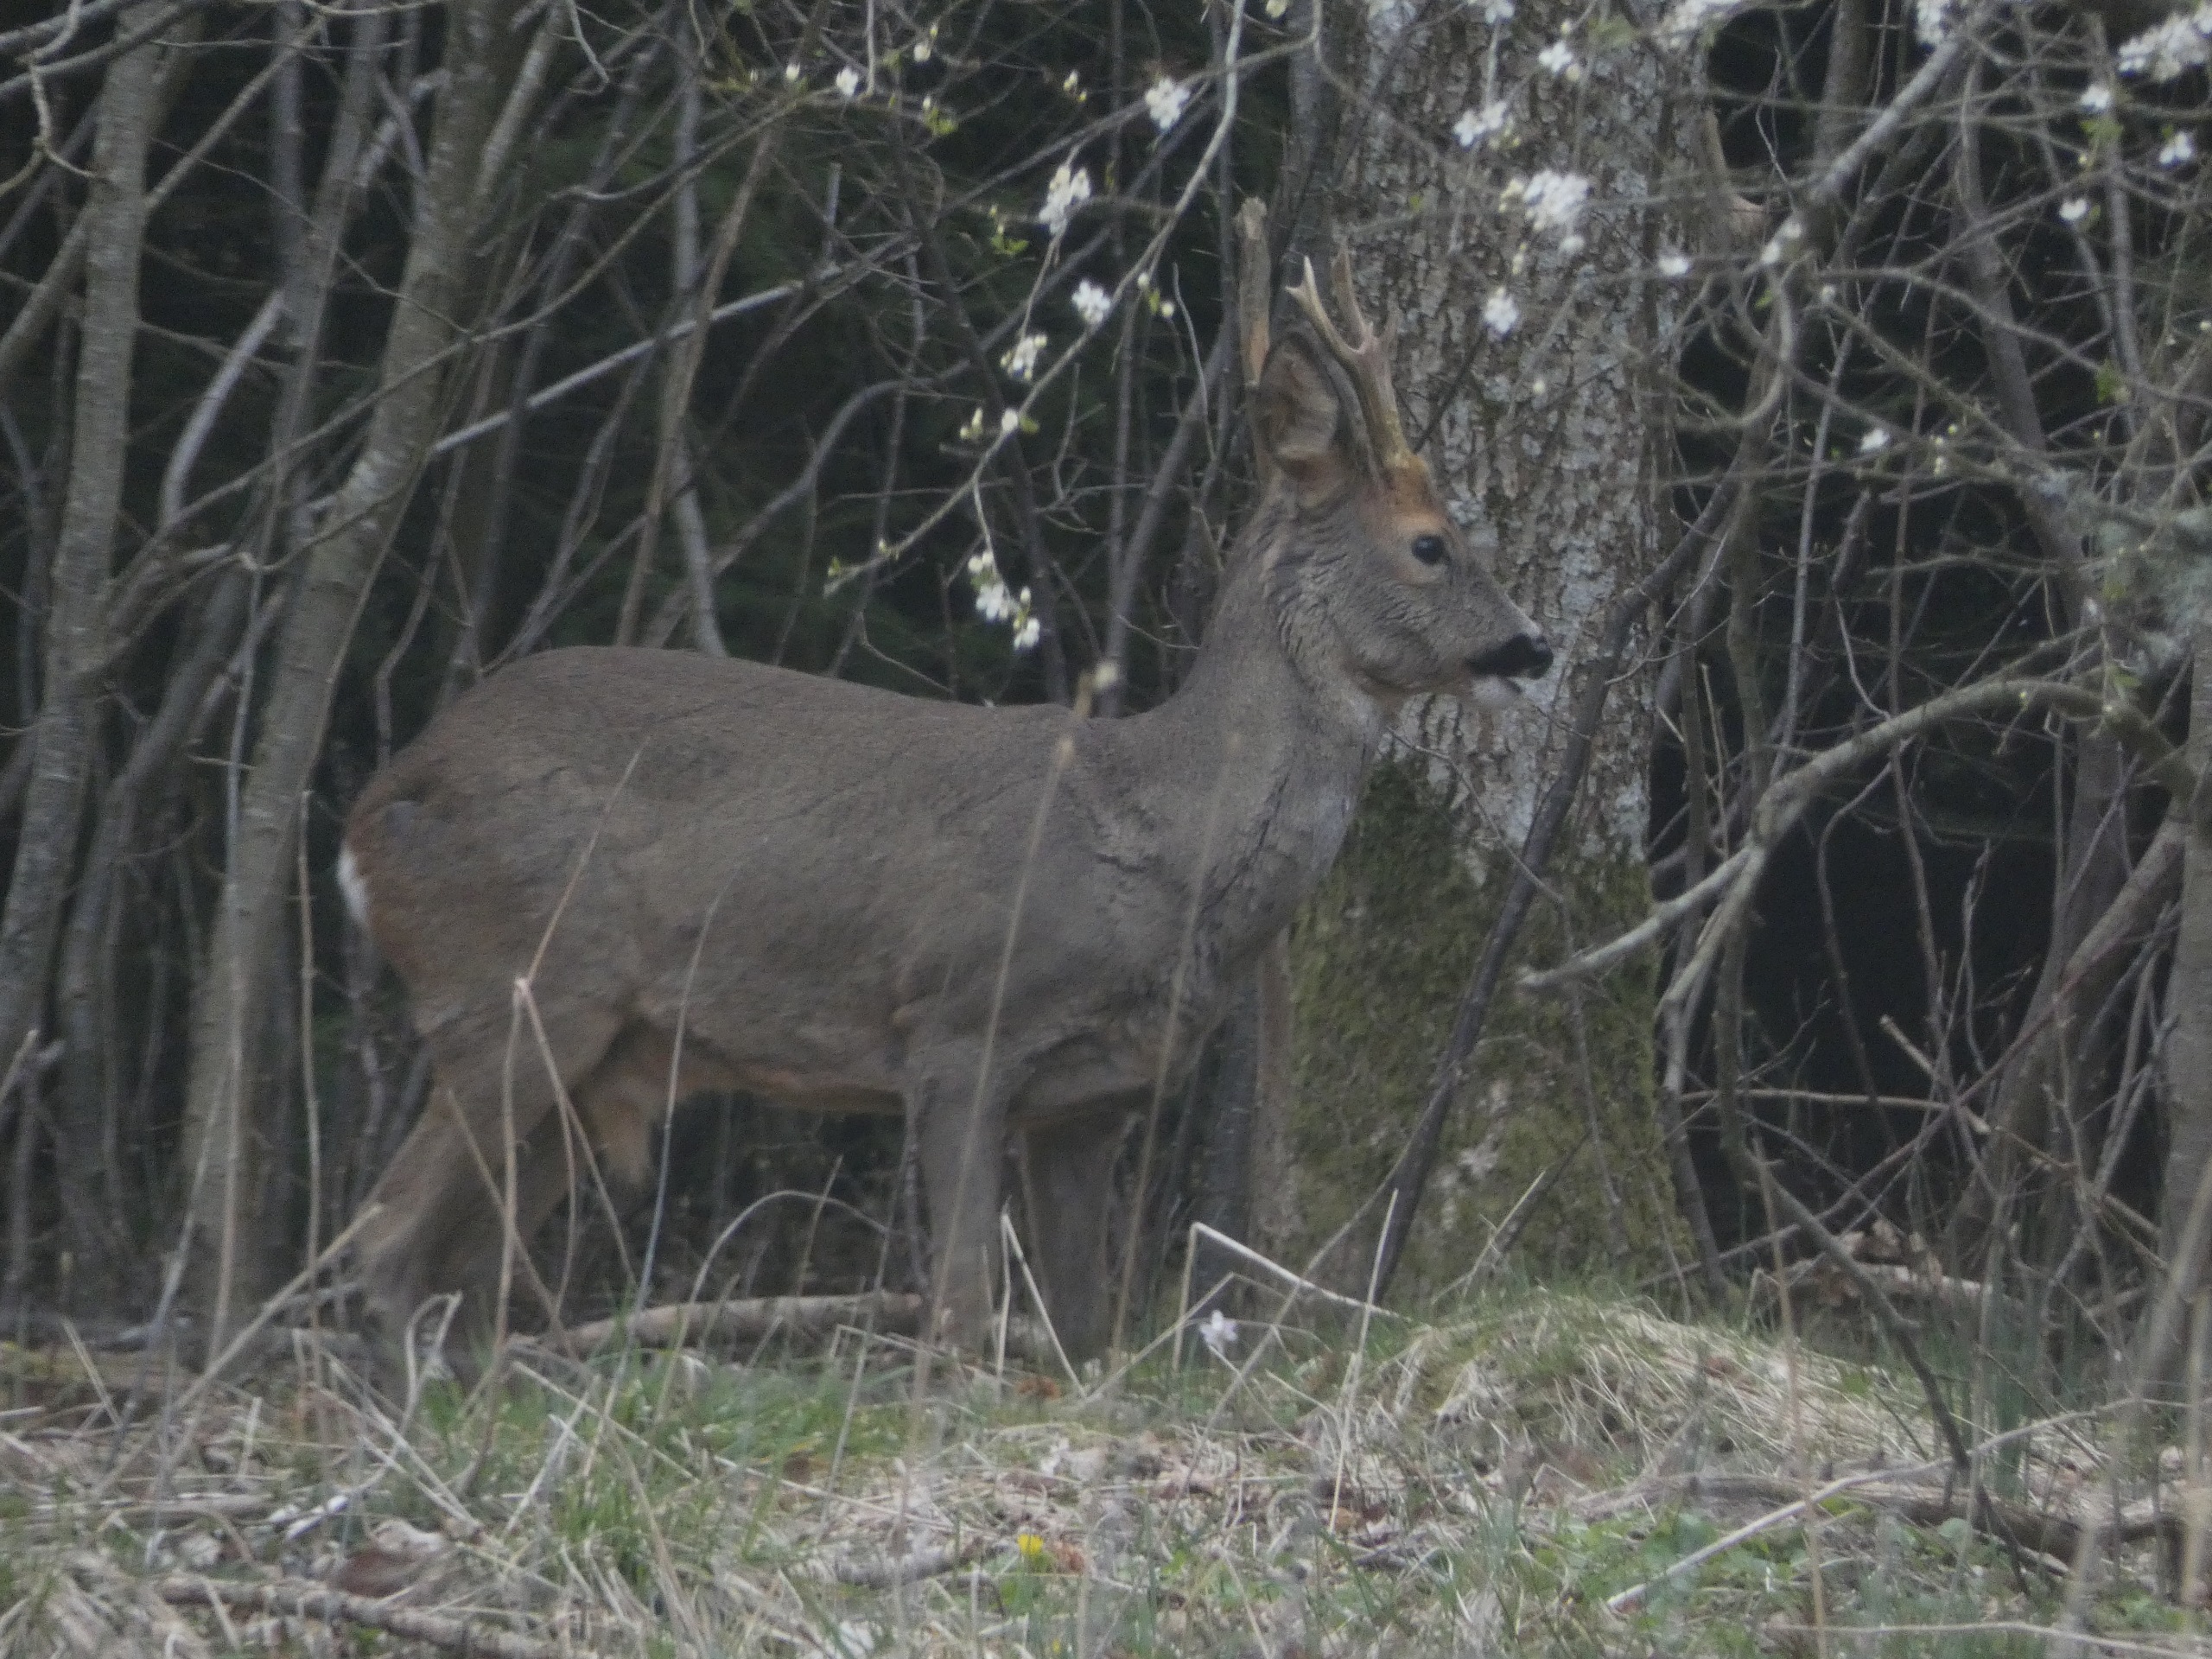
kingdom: Animalia
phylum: Chordata
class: Mammalia
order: Artiodactyla
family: Cervidae
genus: Capreolus
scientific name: Capreolus capreolus
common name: Rådyr
